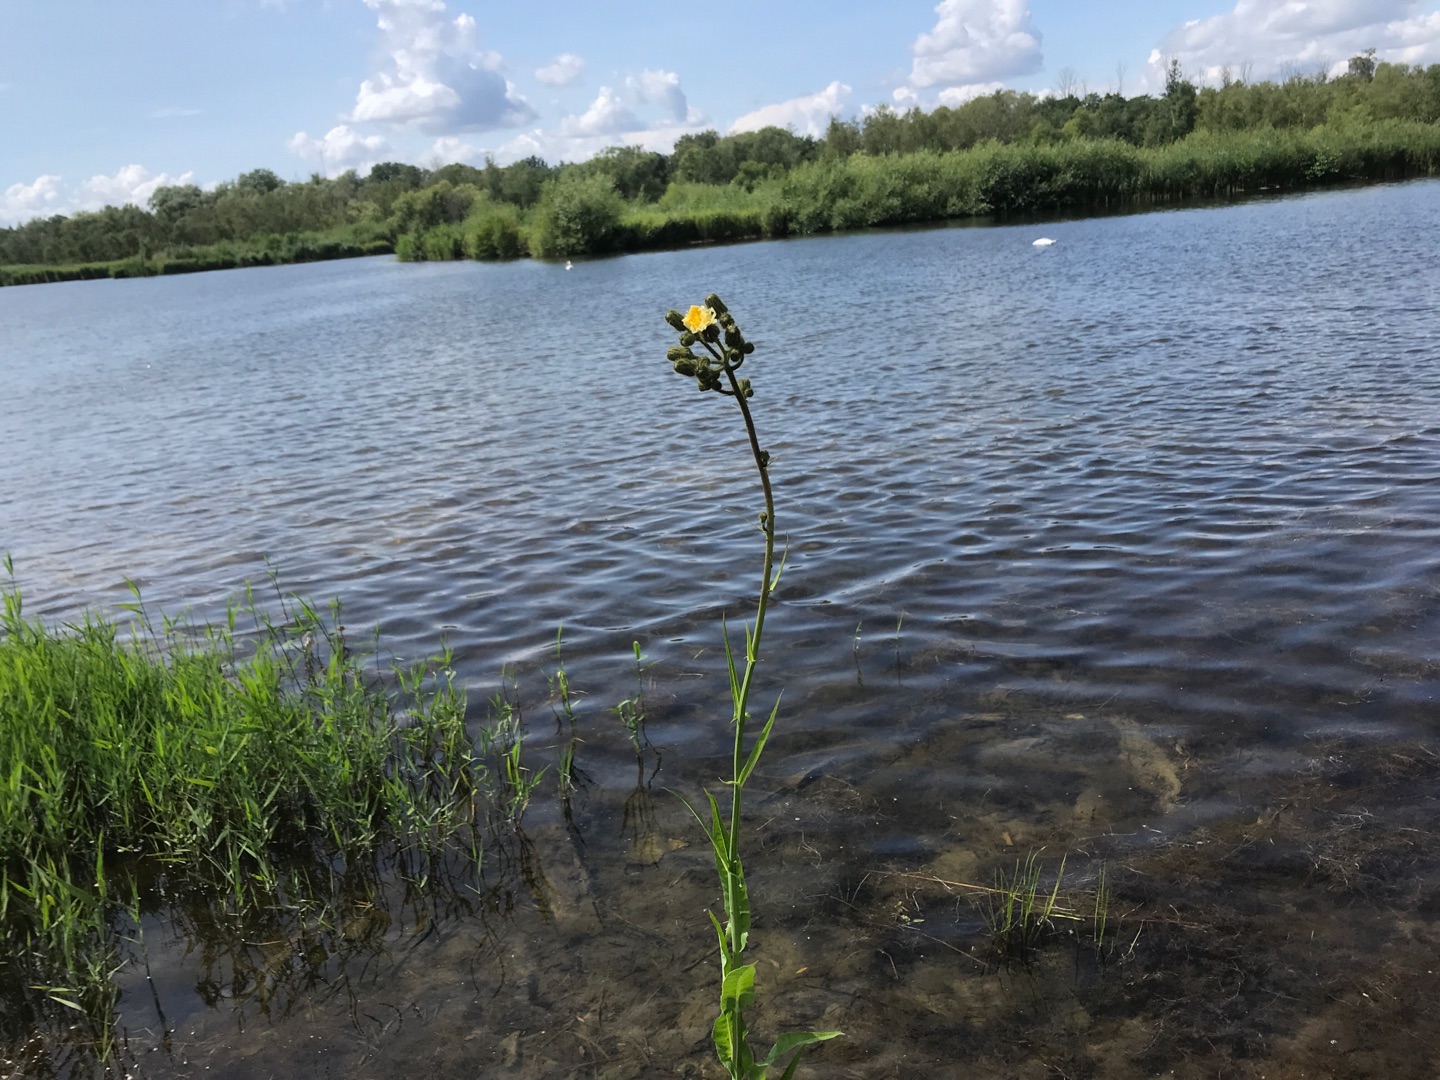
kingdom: Plantae
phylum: Tracheophyta
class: Magnoliopsida
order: Asterales
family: Asteraceae
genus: Sonchus
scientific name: Sonchus palustris
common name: Kær-svinemælk
